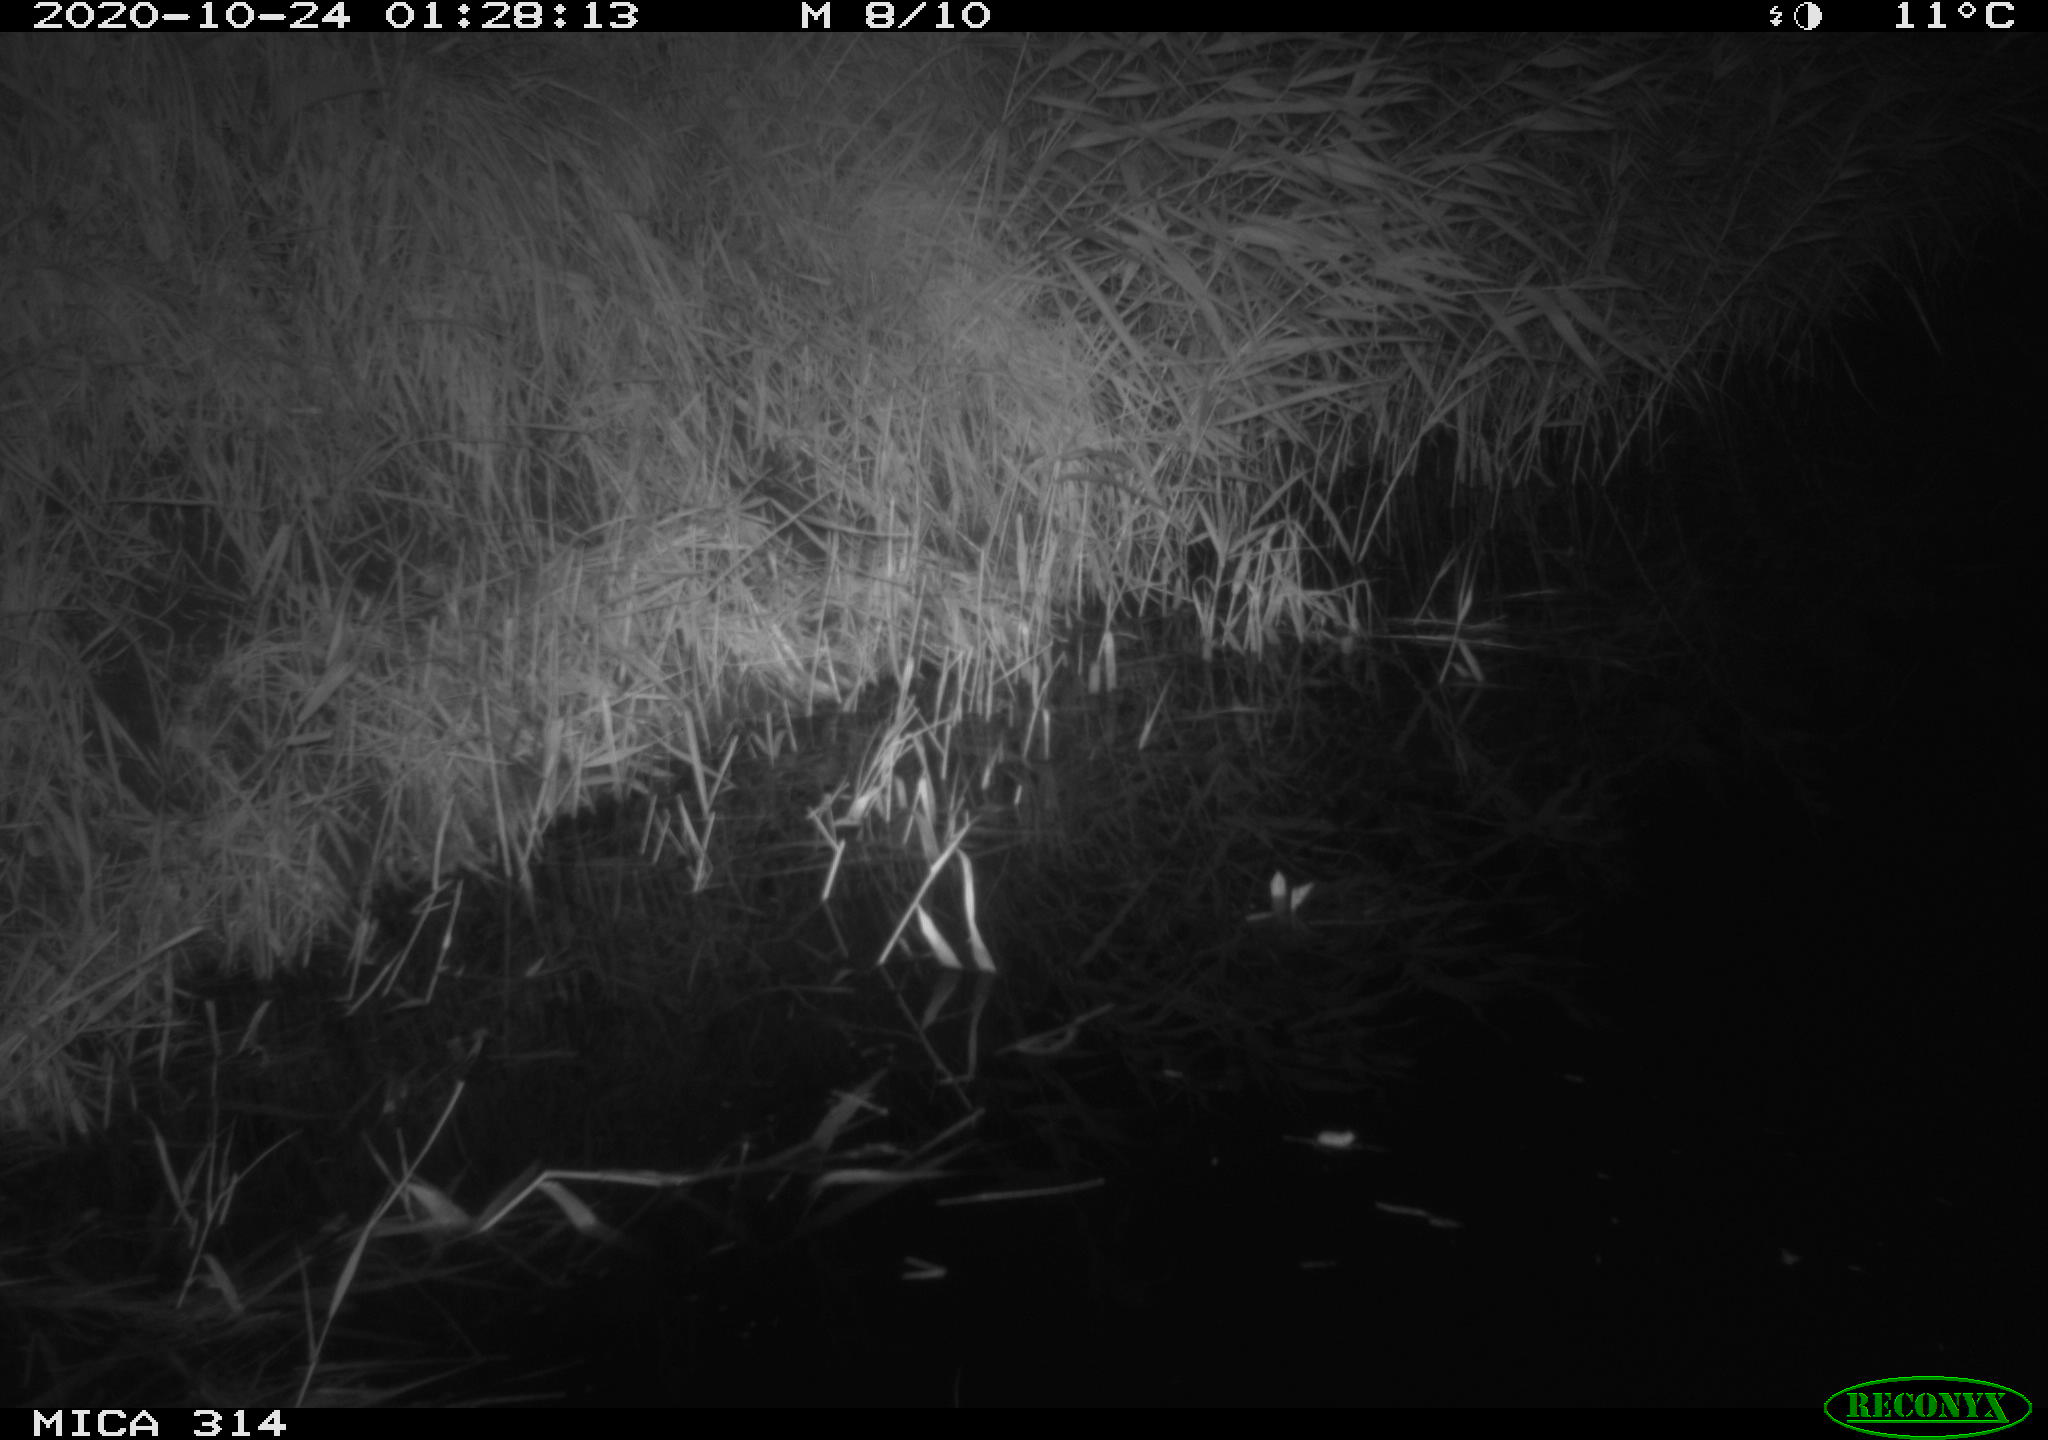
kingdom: Animalia
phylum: Chordata
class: Mammalia
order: Rodentia
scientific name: Rodentia
